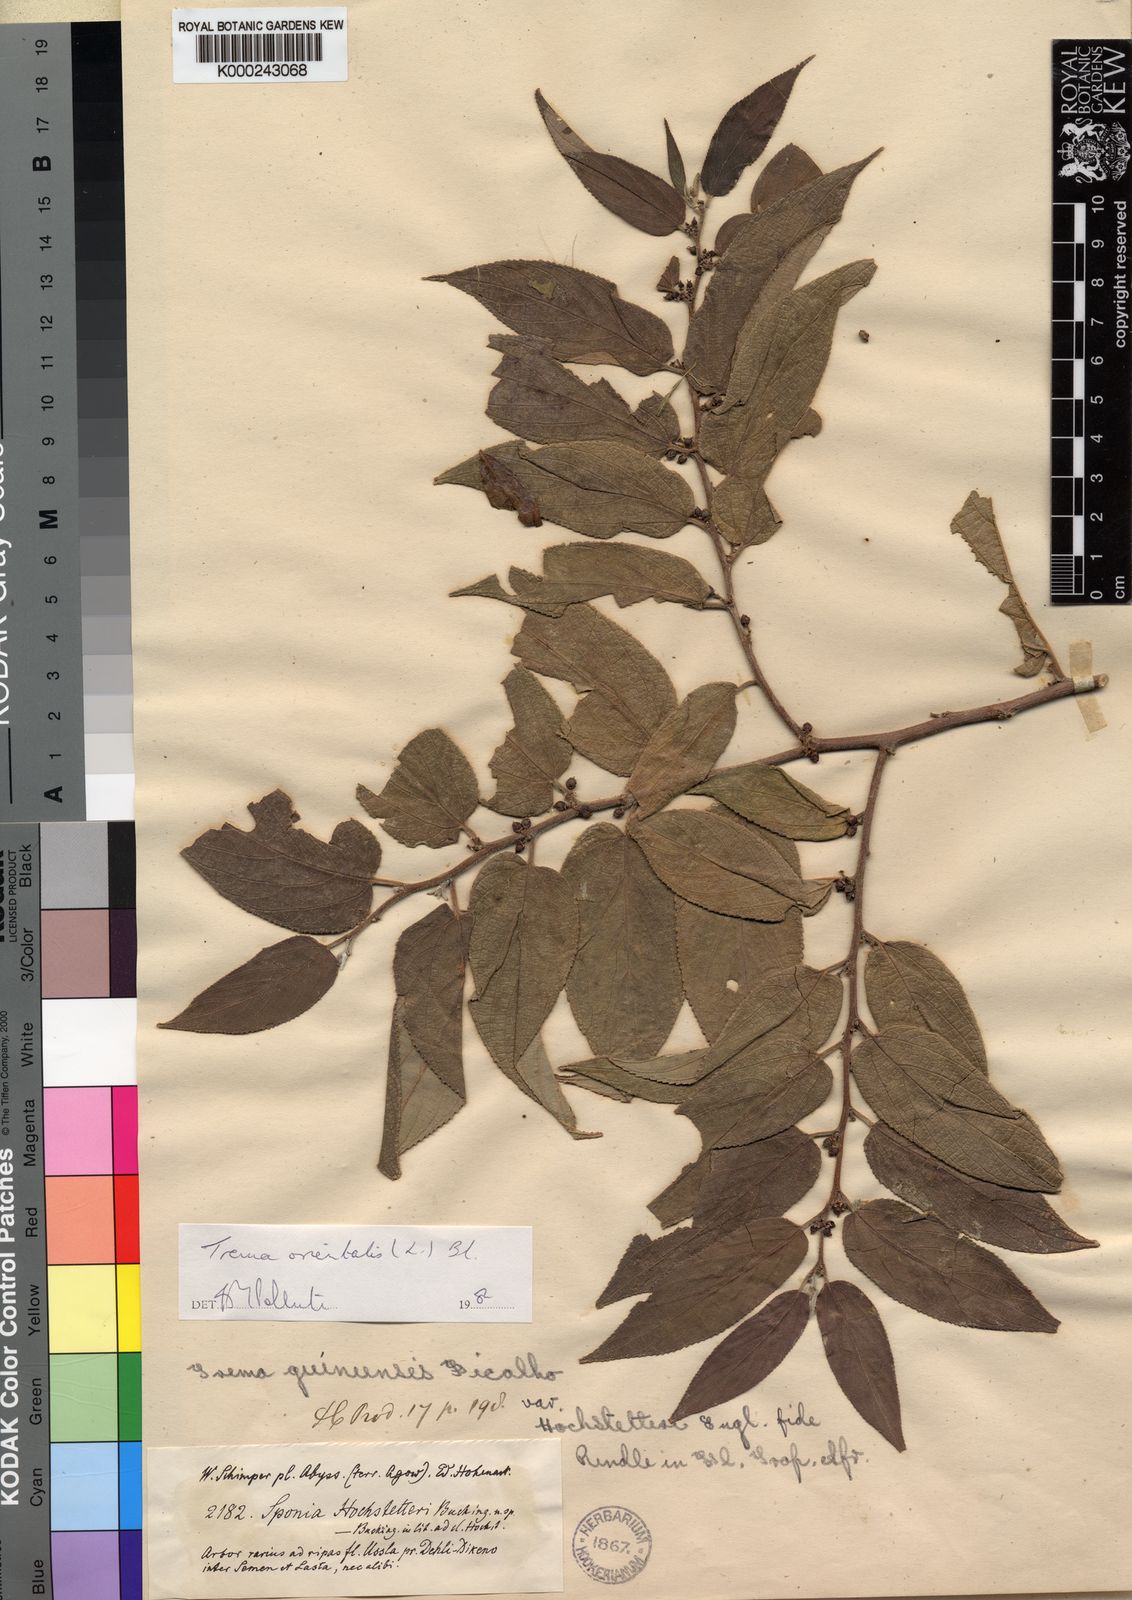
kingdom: Plantae
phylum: Tracheophyta
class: Magnoliopsida
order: Rosales
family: Cannabaceae
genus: Trema
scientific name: Trema
